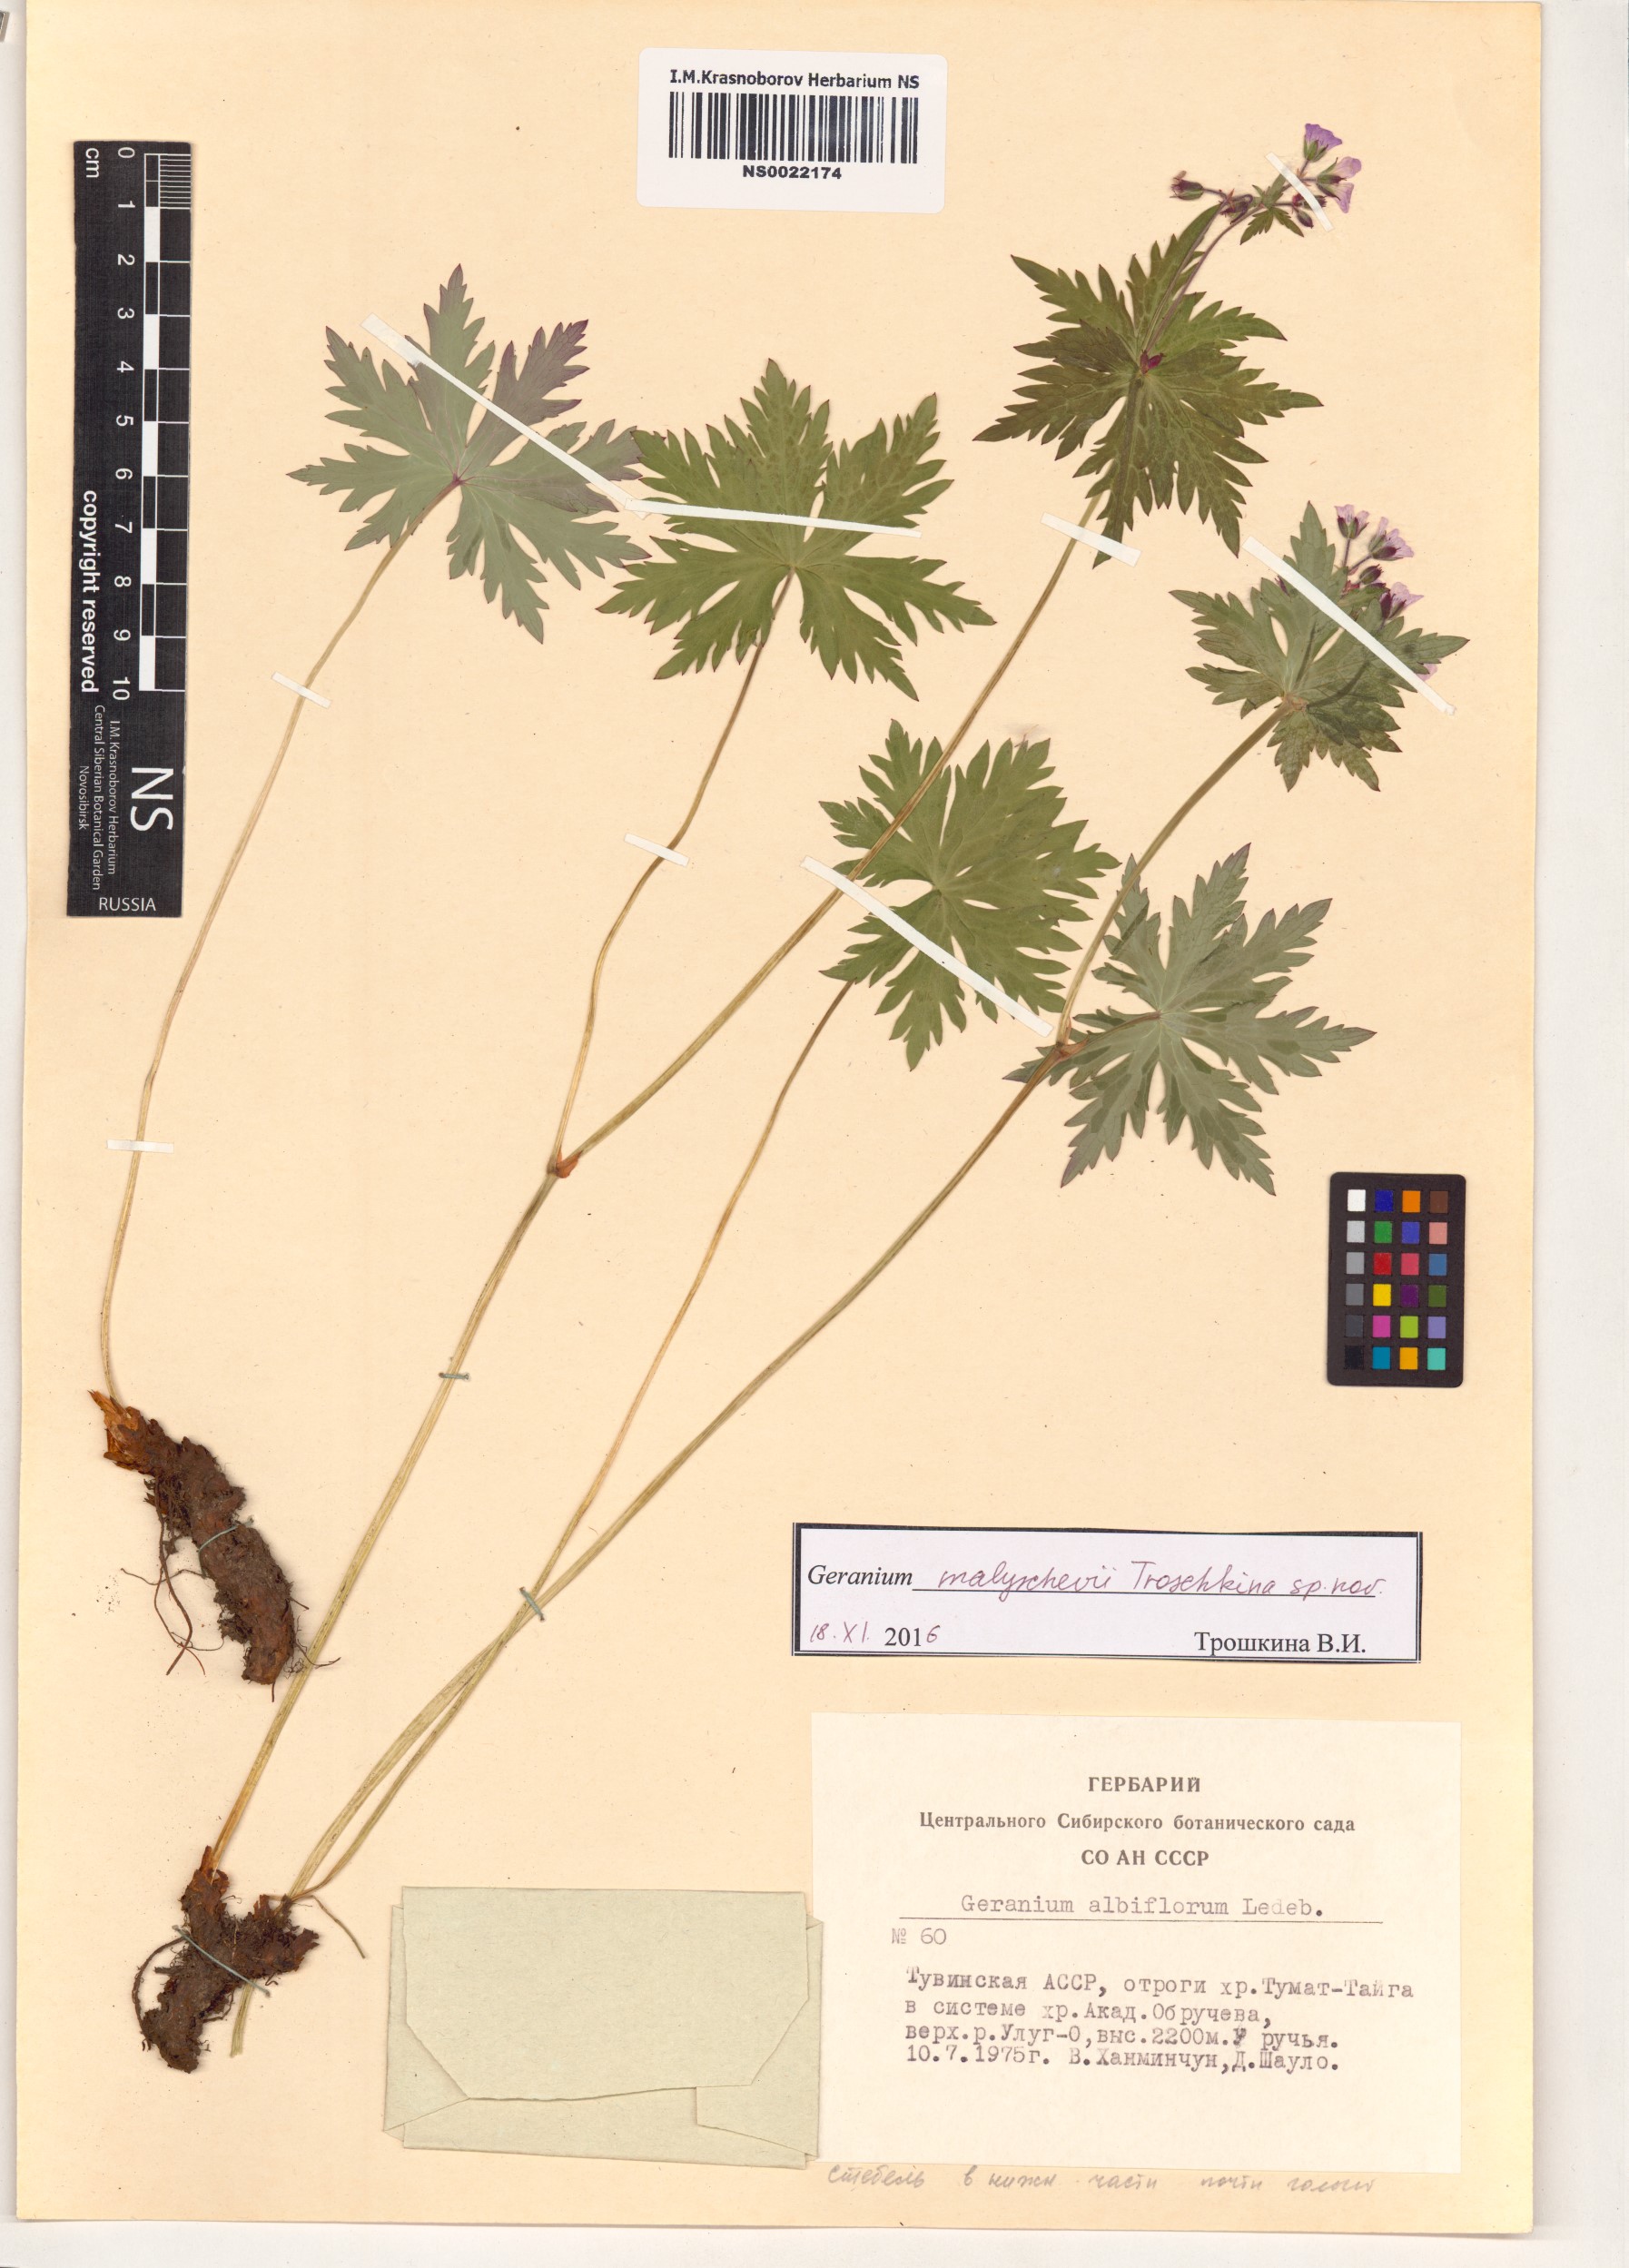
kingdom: Plantae
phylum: Tracheophyta
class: Magnoliopsida
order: Geraniales
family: Geraniaceae
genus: Geranium
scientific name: Geranium malyschevii
